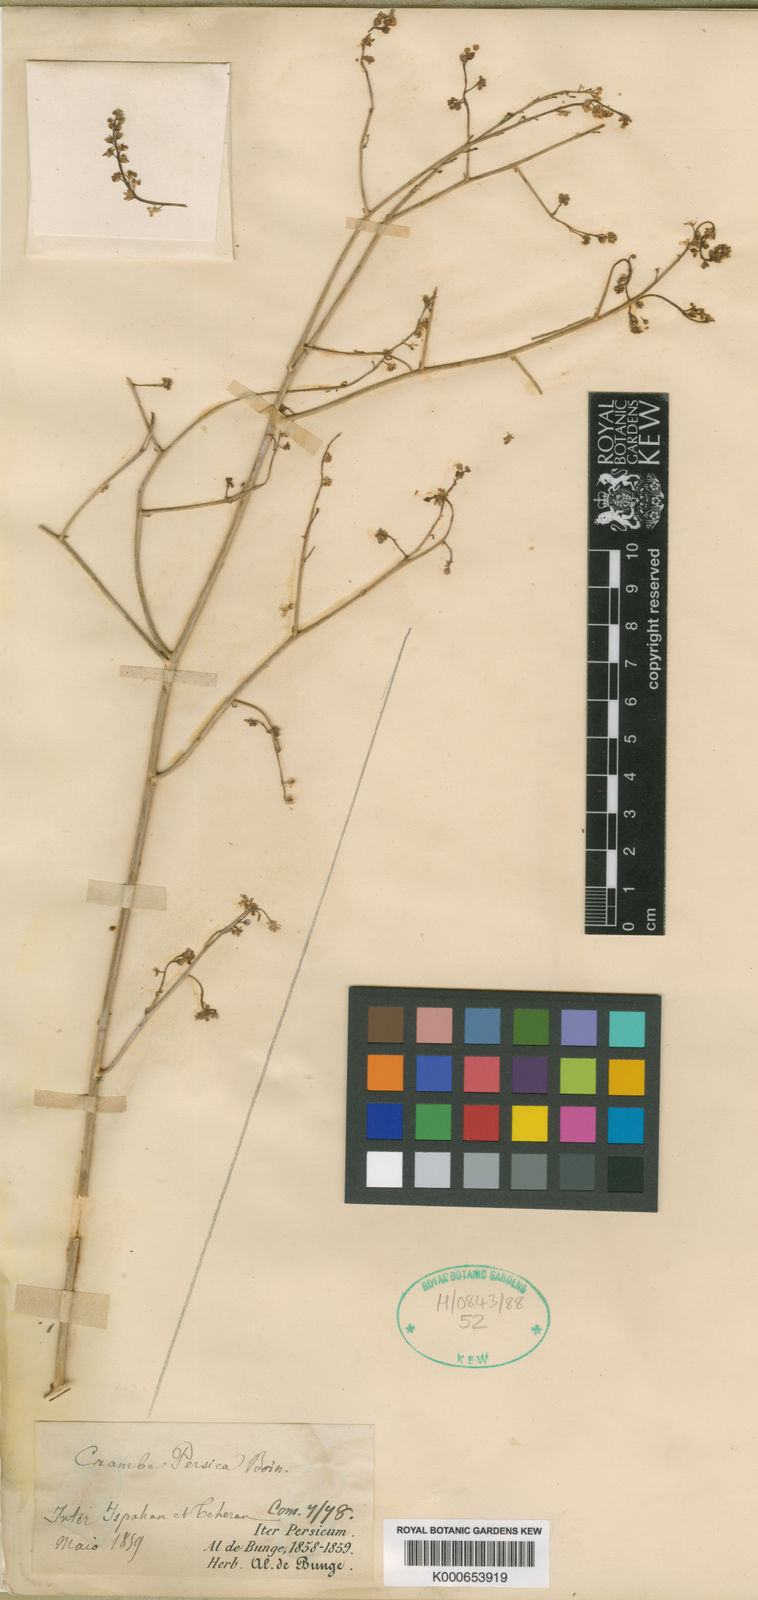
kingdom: Plantae
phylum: Tracheophyta
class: Magnoliopsida
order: Brassicales
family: Brassicaceae
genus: Crambe
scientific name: Crambe persica
